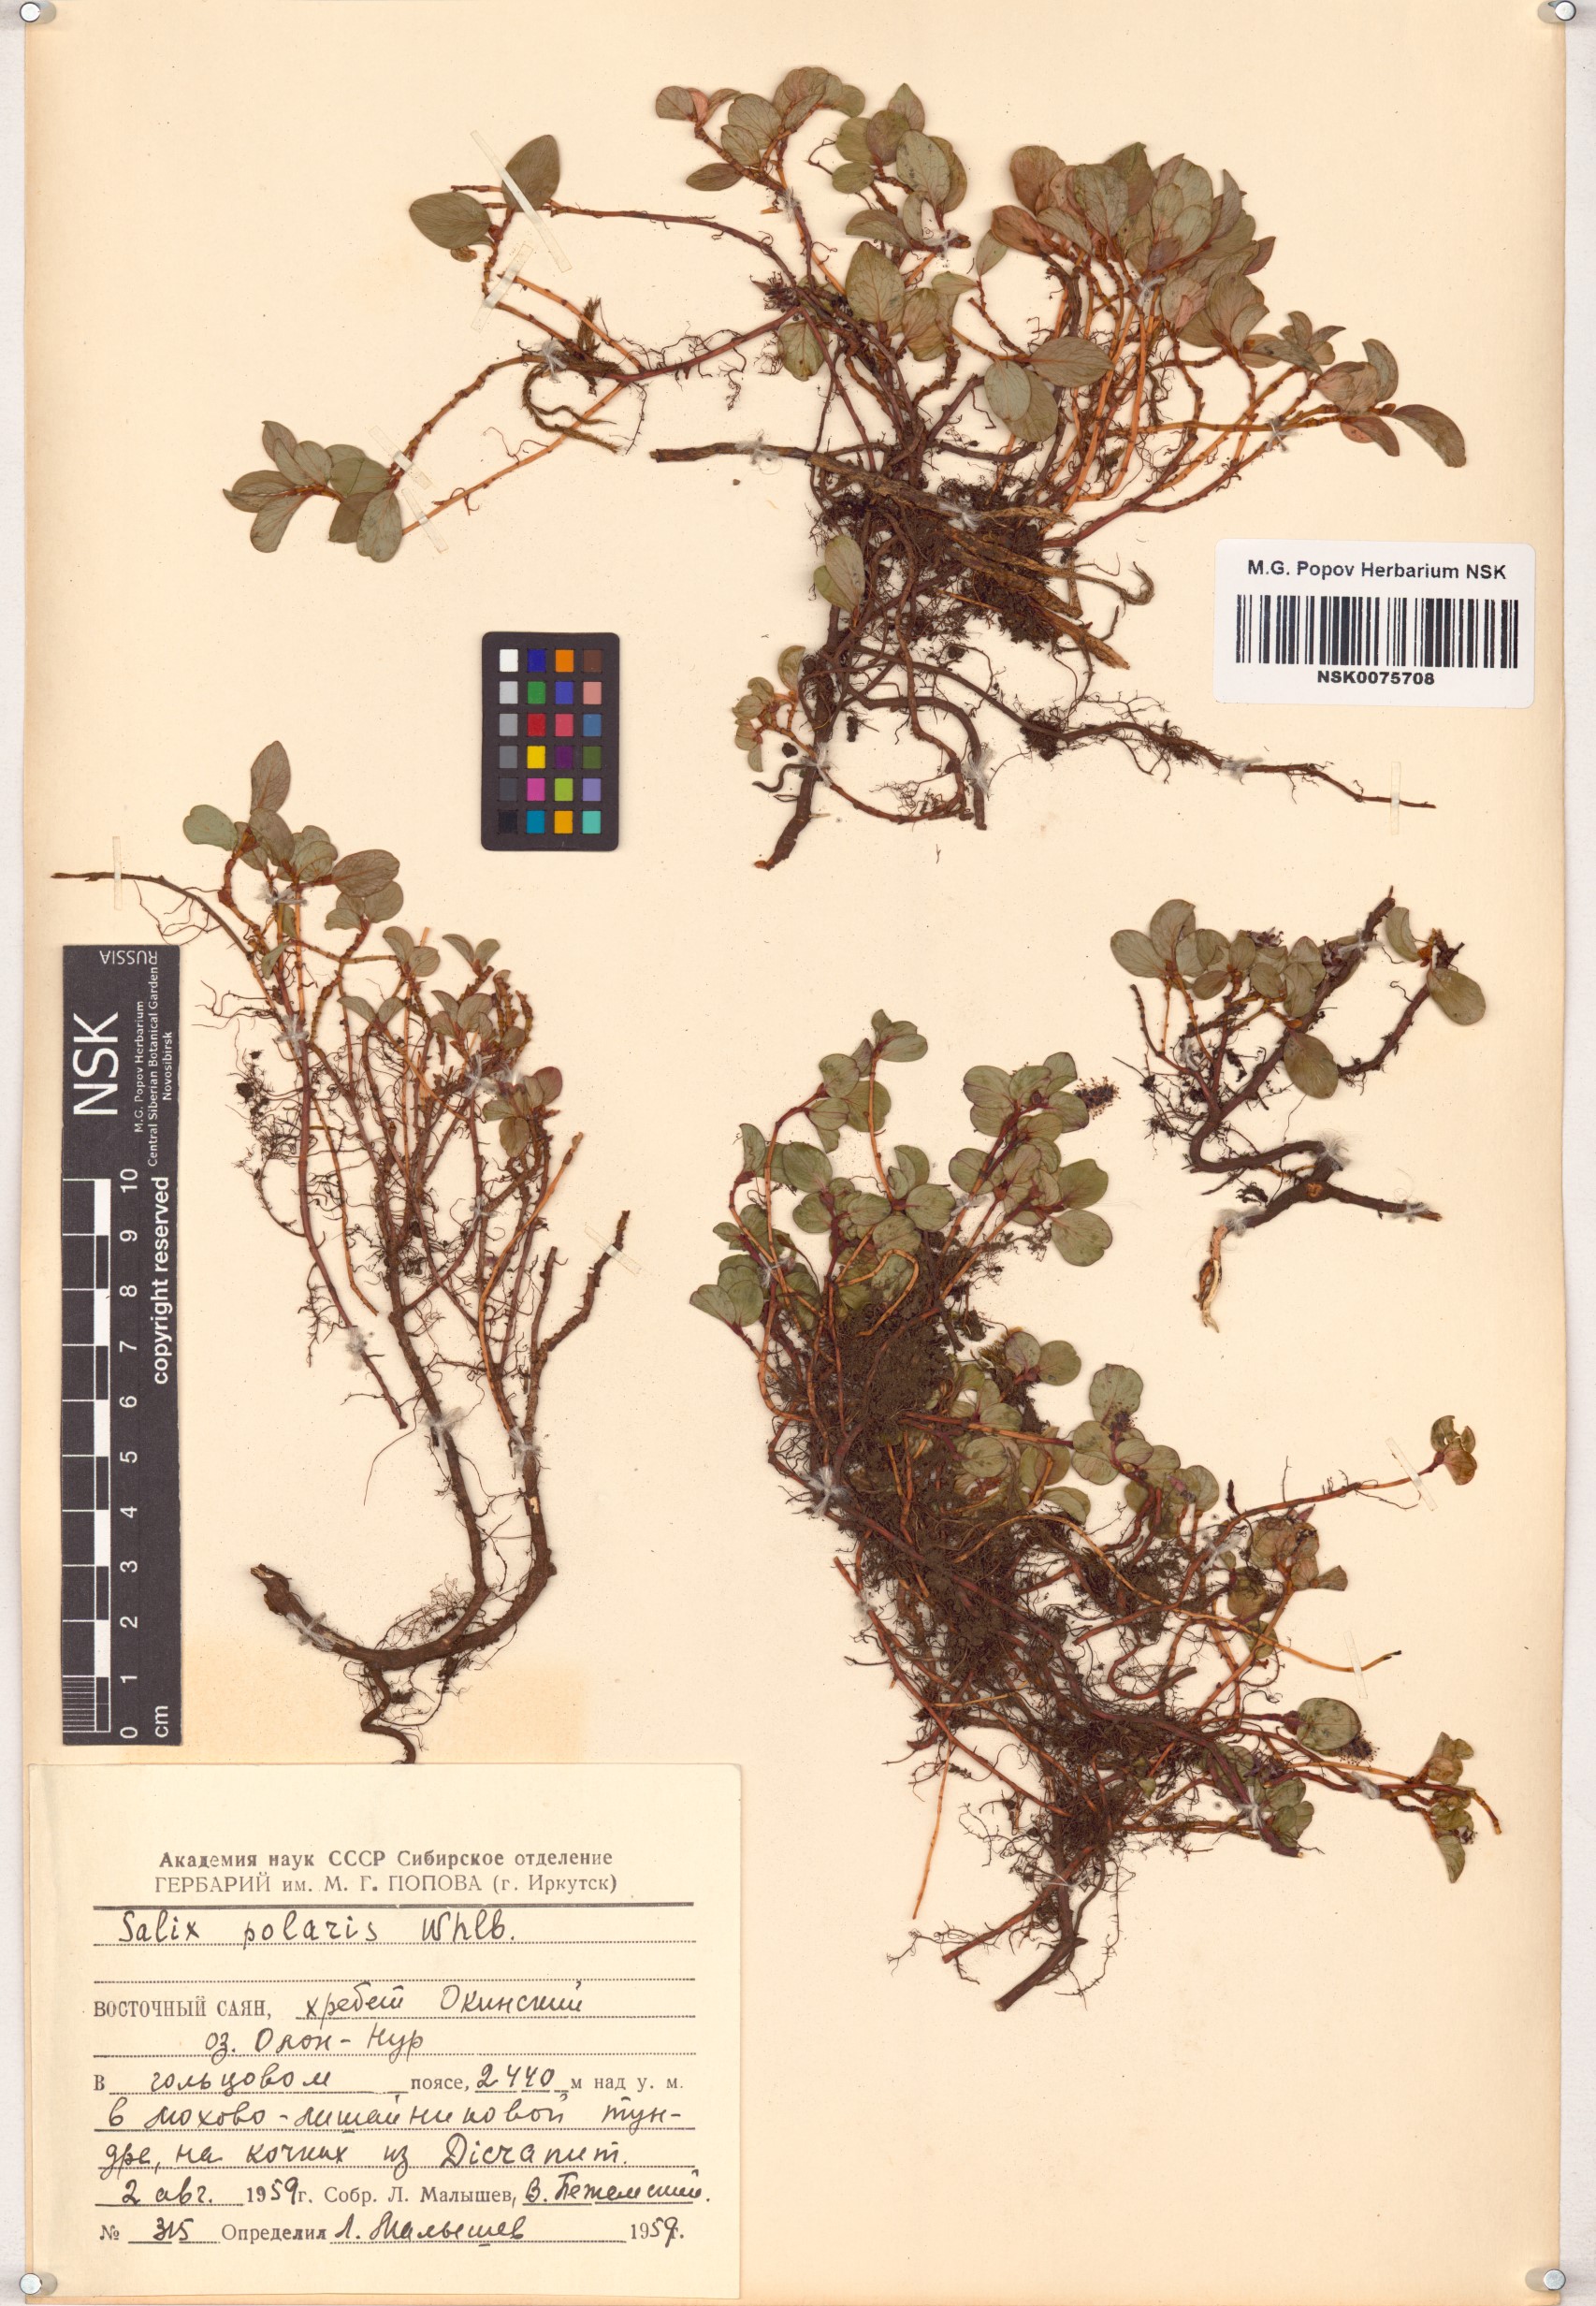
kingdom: Plantae
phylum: Tracheophyta
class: Magnoliopsida
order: Malpighiales
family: Salicaceae
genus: Salix
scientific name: Salix polaris
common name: Polar willow
